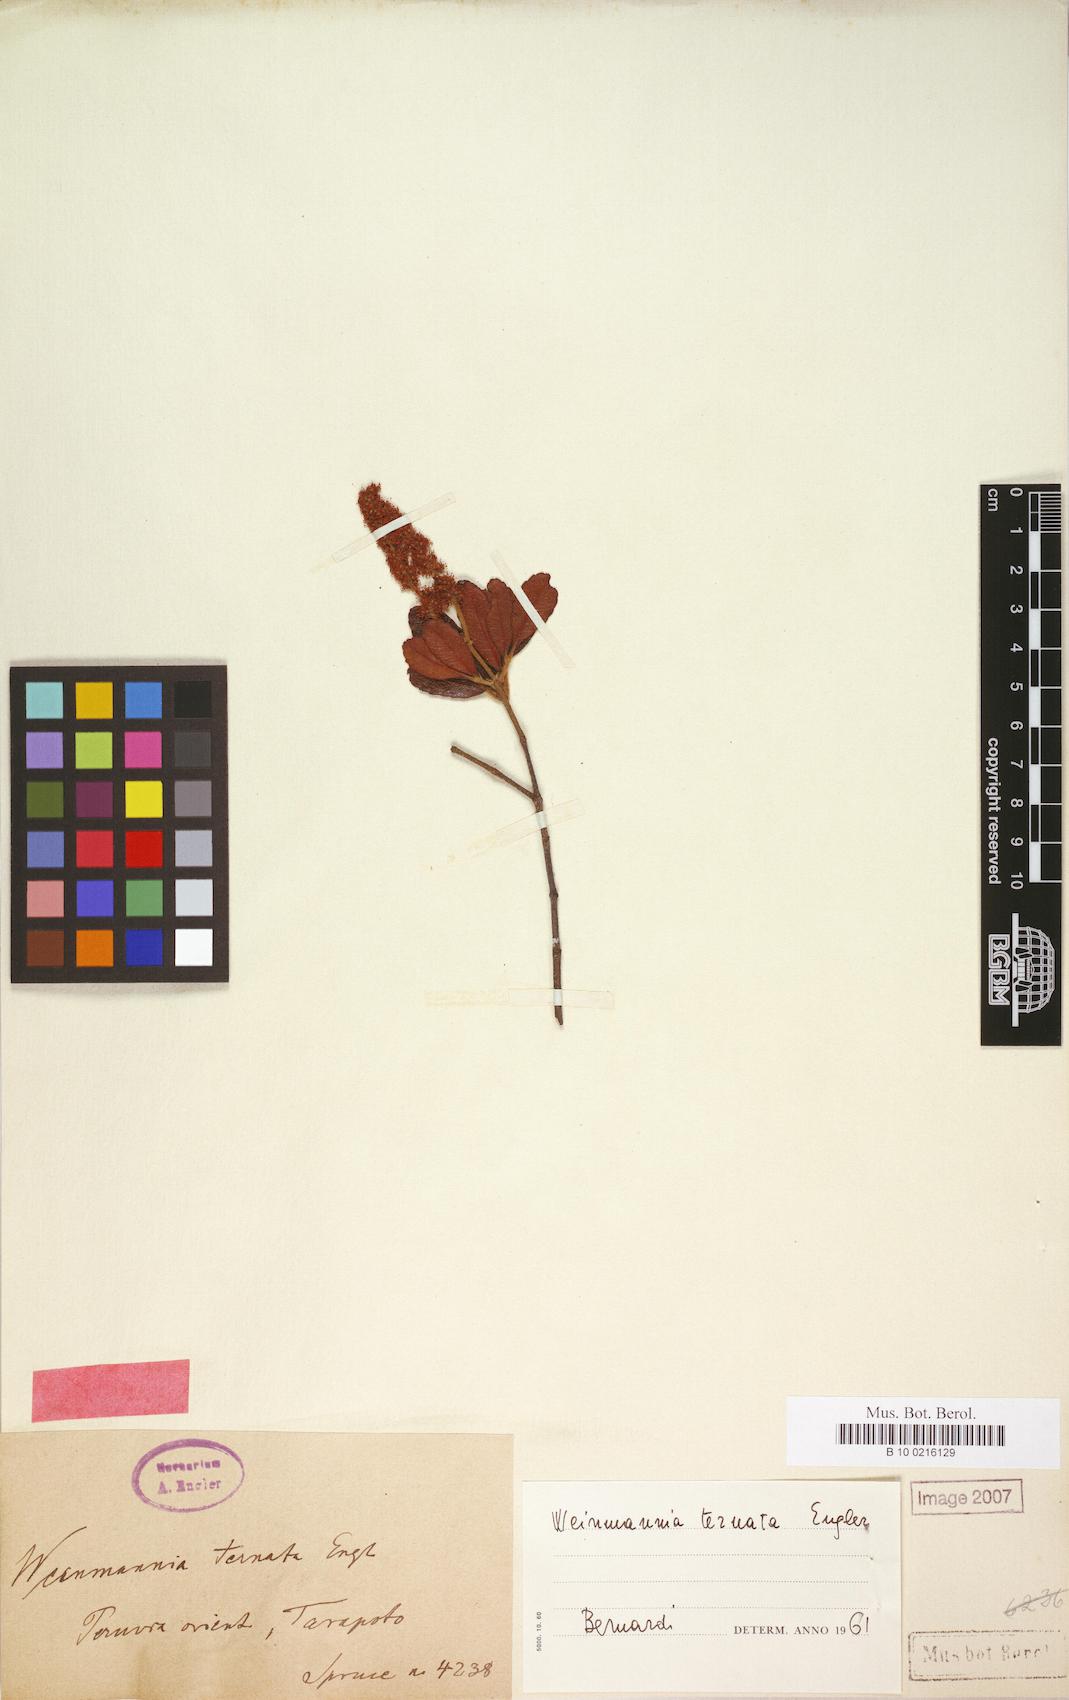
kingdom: Plantae
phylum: Tracheophyta
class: Magnoliopsida
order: Oxalidales
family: Cunoniaceae
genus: Weinmannia
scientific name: Weinmannia ternata
